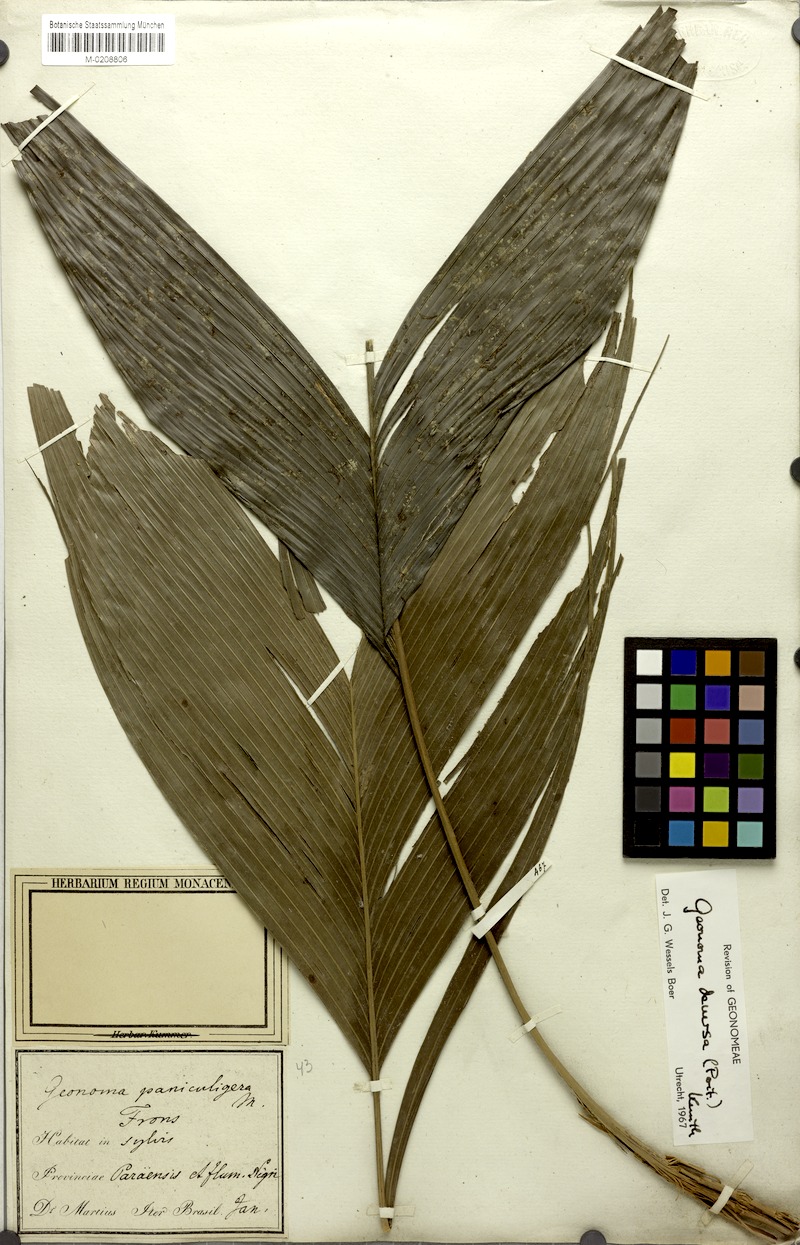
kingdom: Plantae
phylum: Tracheophyta
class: Liliopsida
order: Arecales
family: Arecaceae
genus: Geonoma
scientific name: Geonoma deversa
